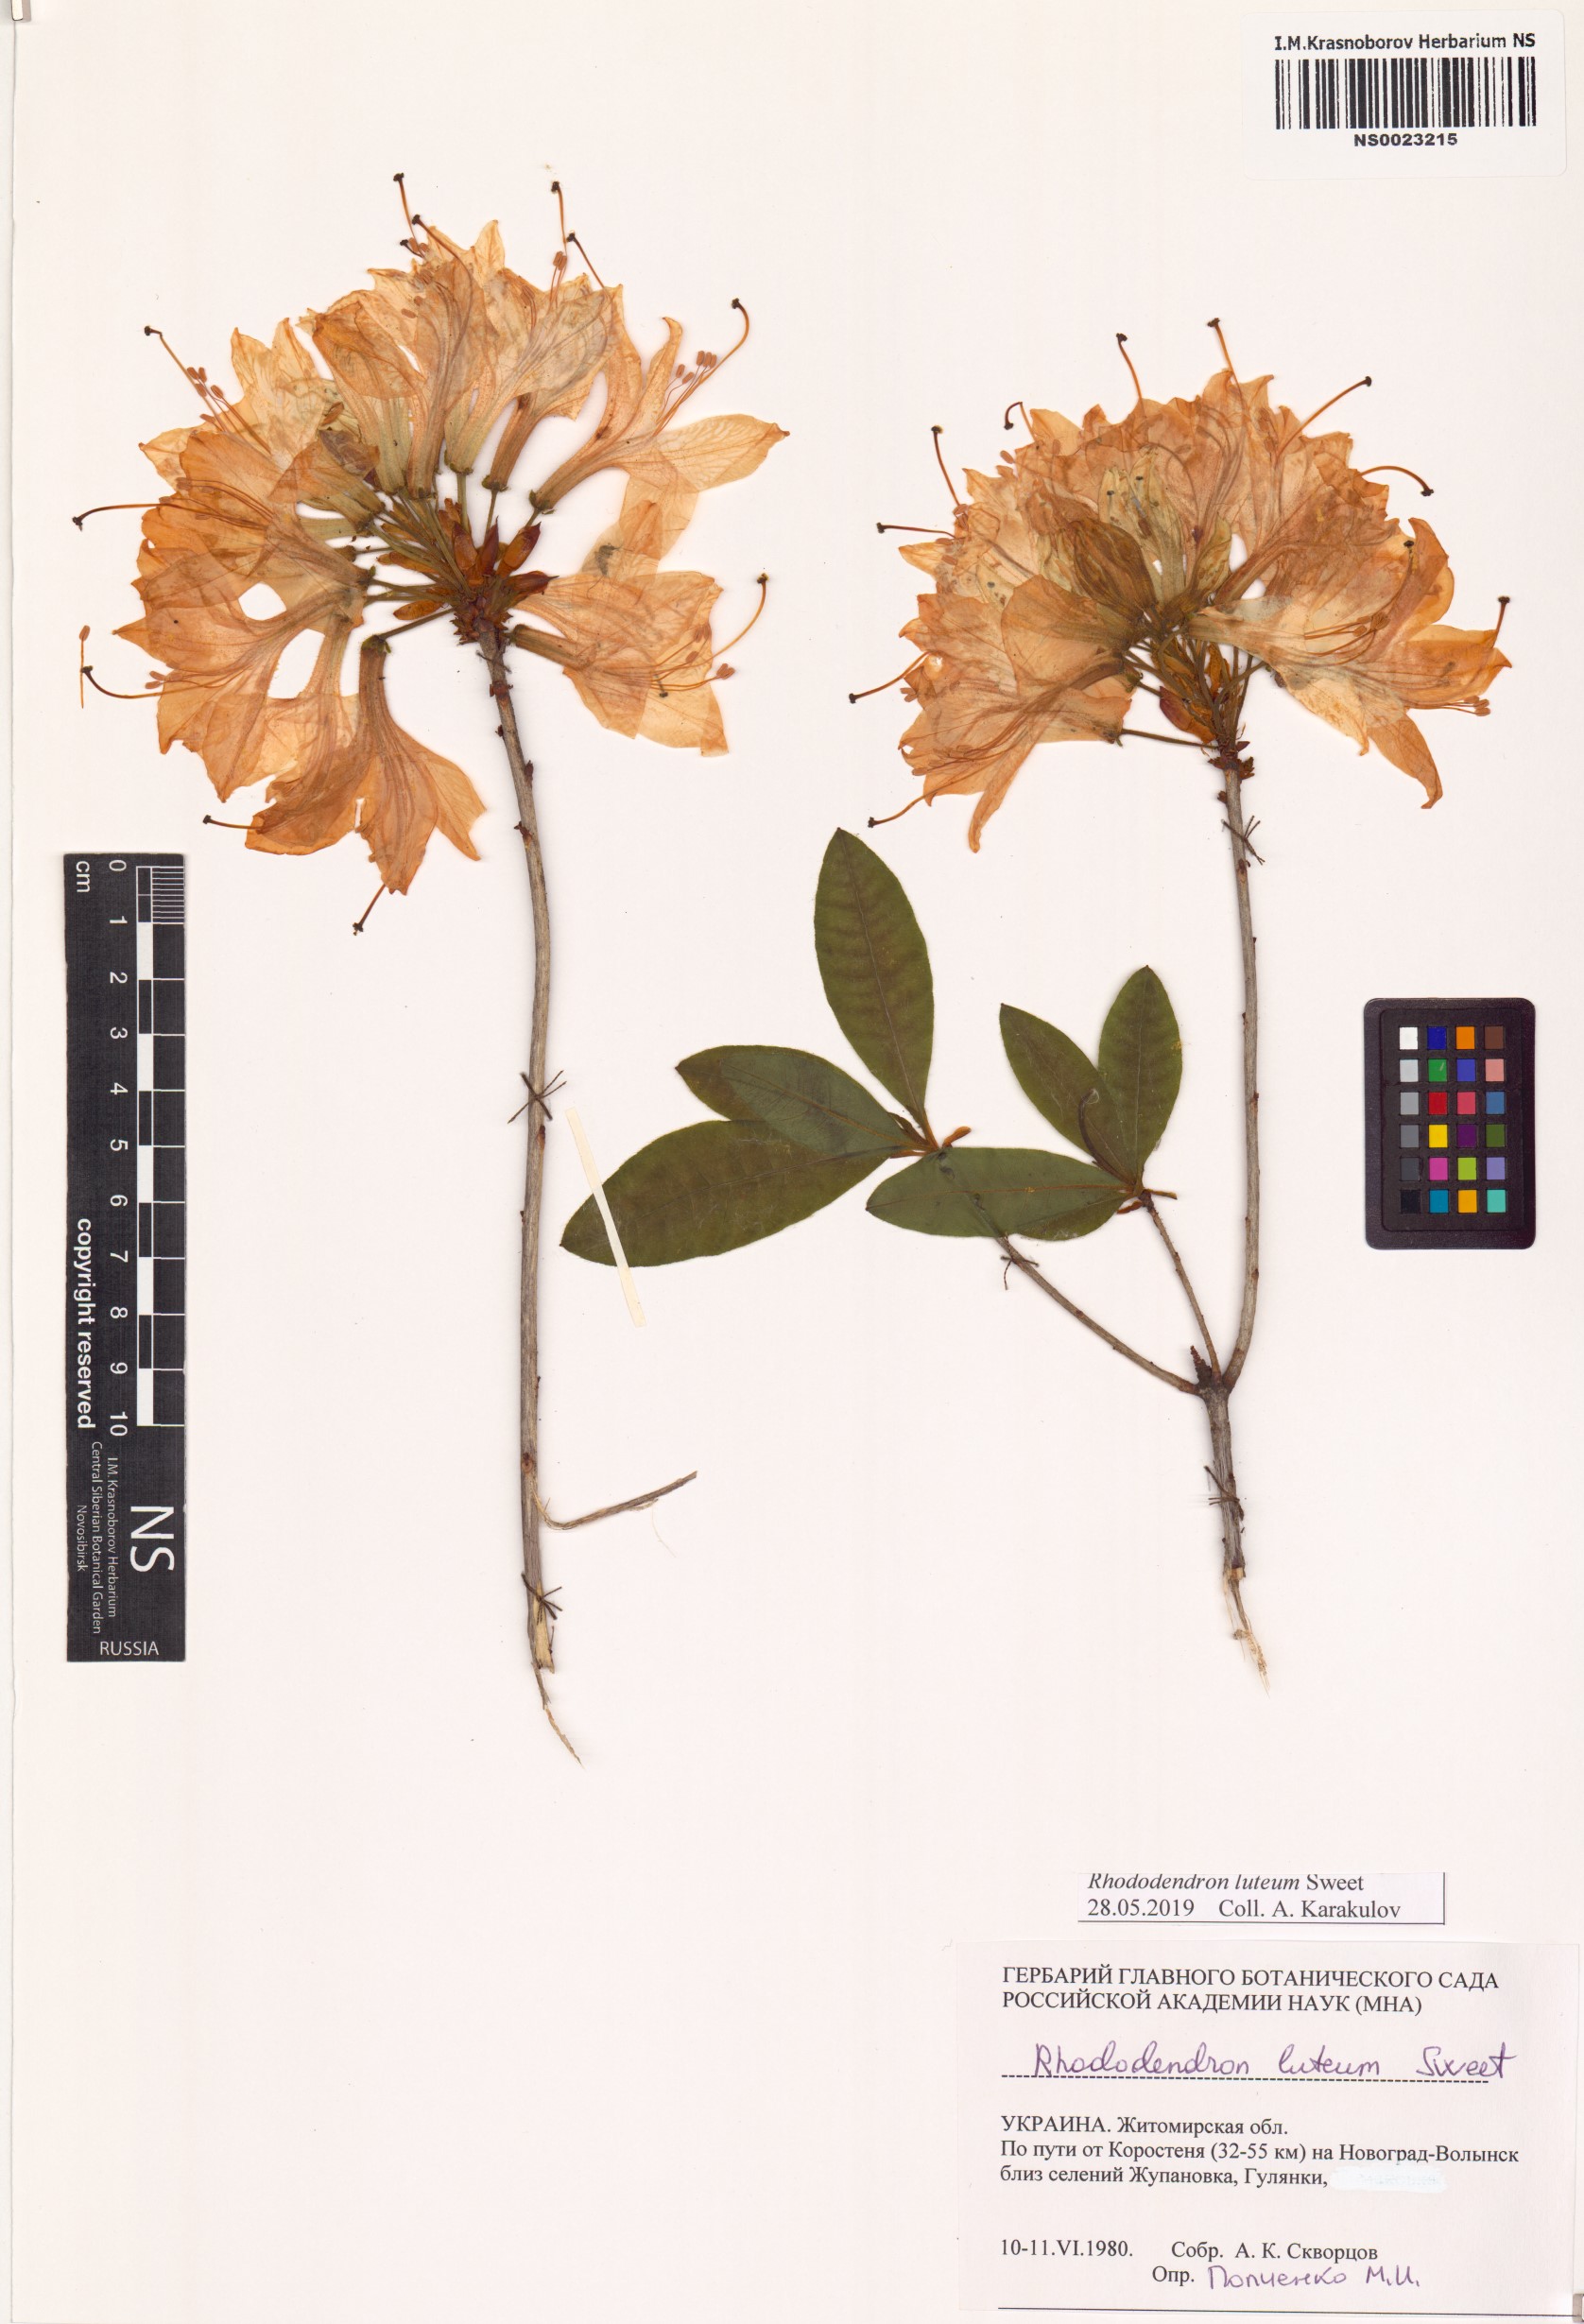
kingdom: Plantae
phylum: Tracheophyta
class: Magnoliopsida
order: Ericales
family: Ericaceae
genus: Rhododendron
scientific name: Rhododendron luteum
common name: Yellow azalea
